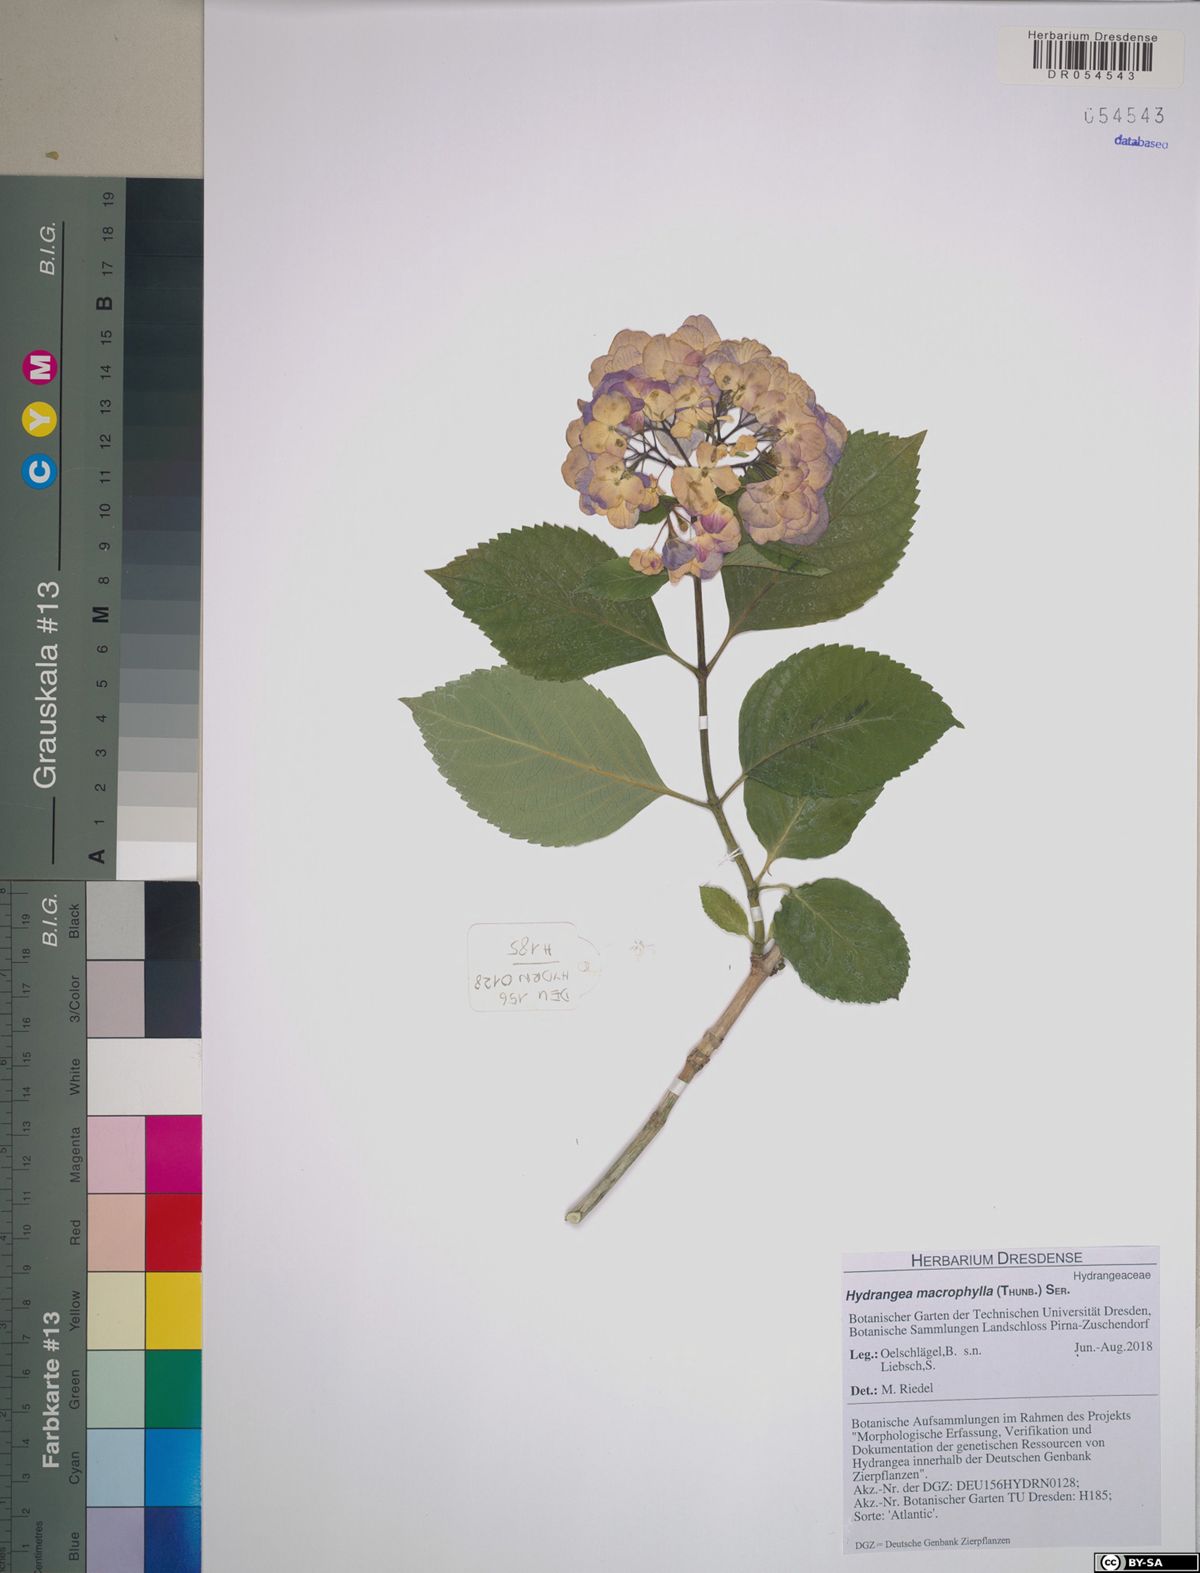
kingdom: Plantae
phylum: Tracheophyta
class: Magnoliopsida
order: Cornales
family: Hydrangeaceae
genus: Hydrangea
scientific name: Hydrangea macrophylla
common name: Hydrangea
